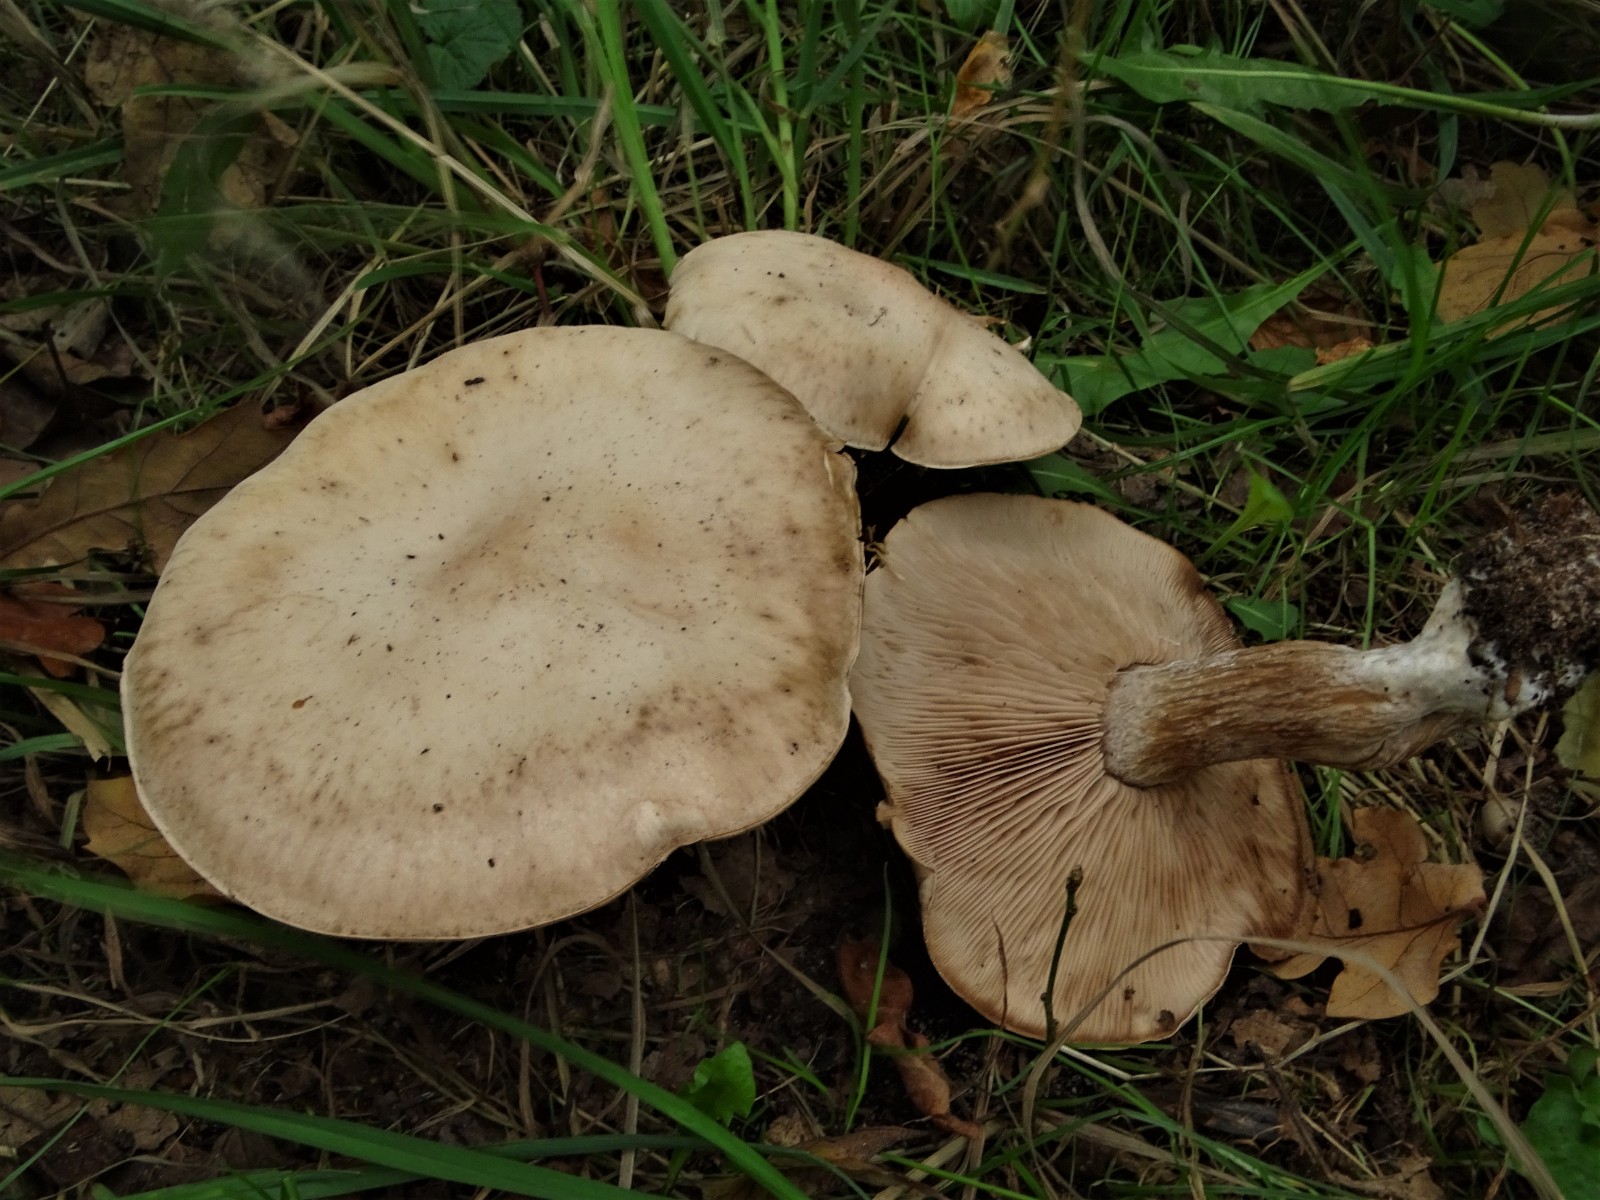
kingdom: Fungi
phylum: Basidiomycota
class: Agaricomycetes
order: Agaricales
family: Tricholomataceae
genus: Lepista
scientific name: Lepista irina
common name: violduftende hekseringshat
